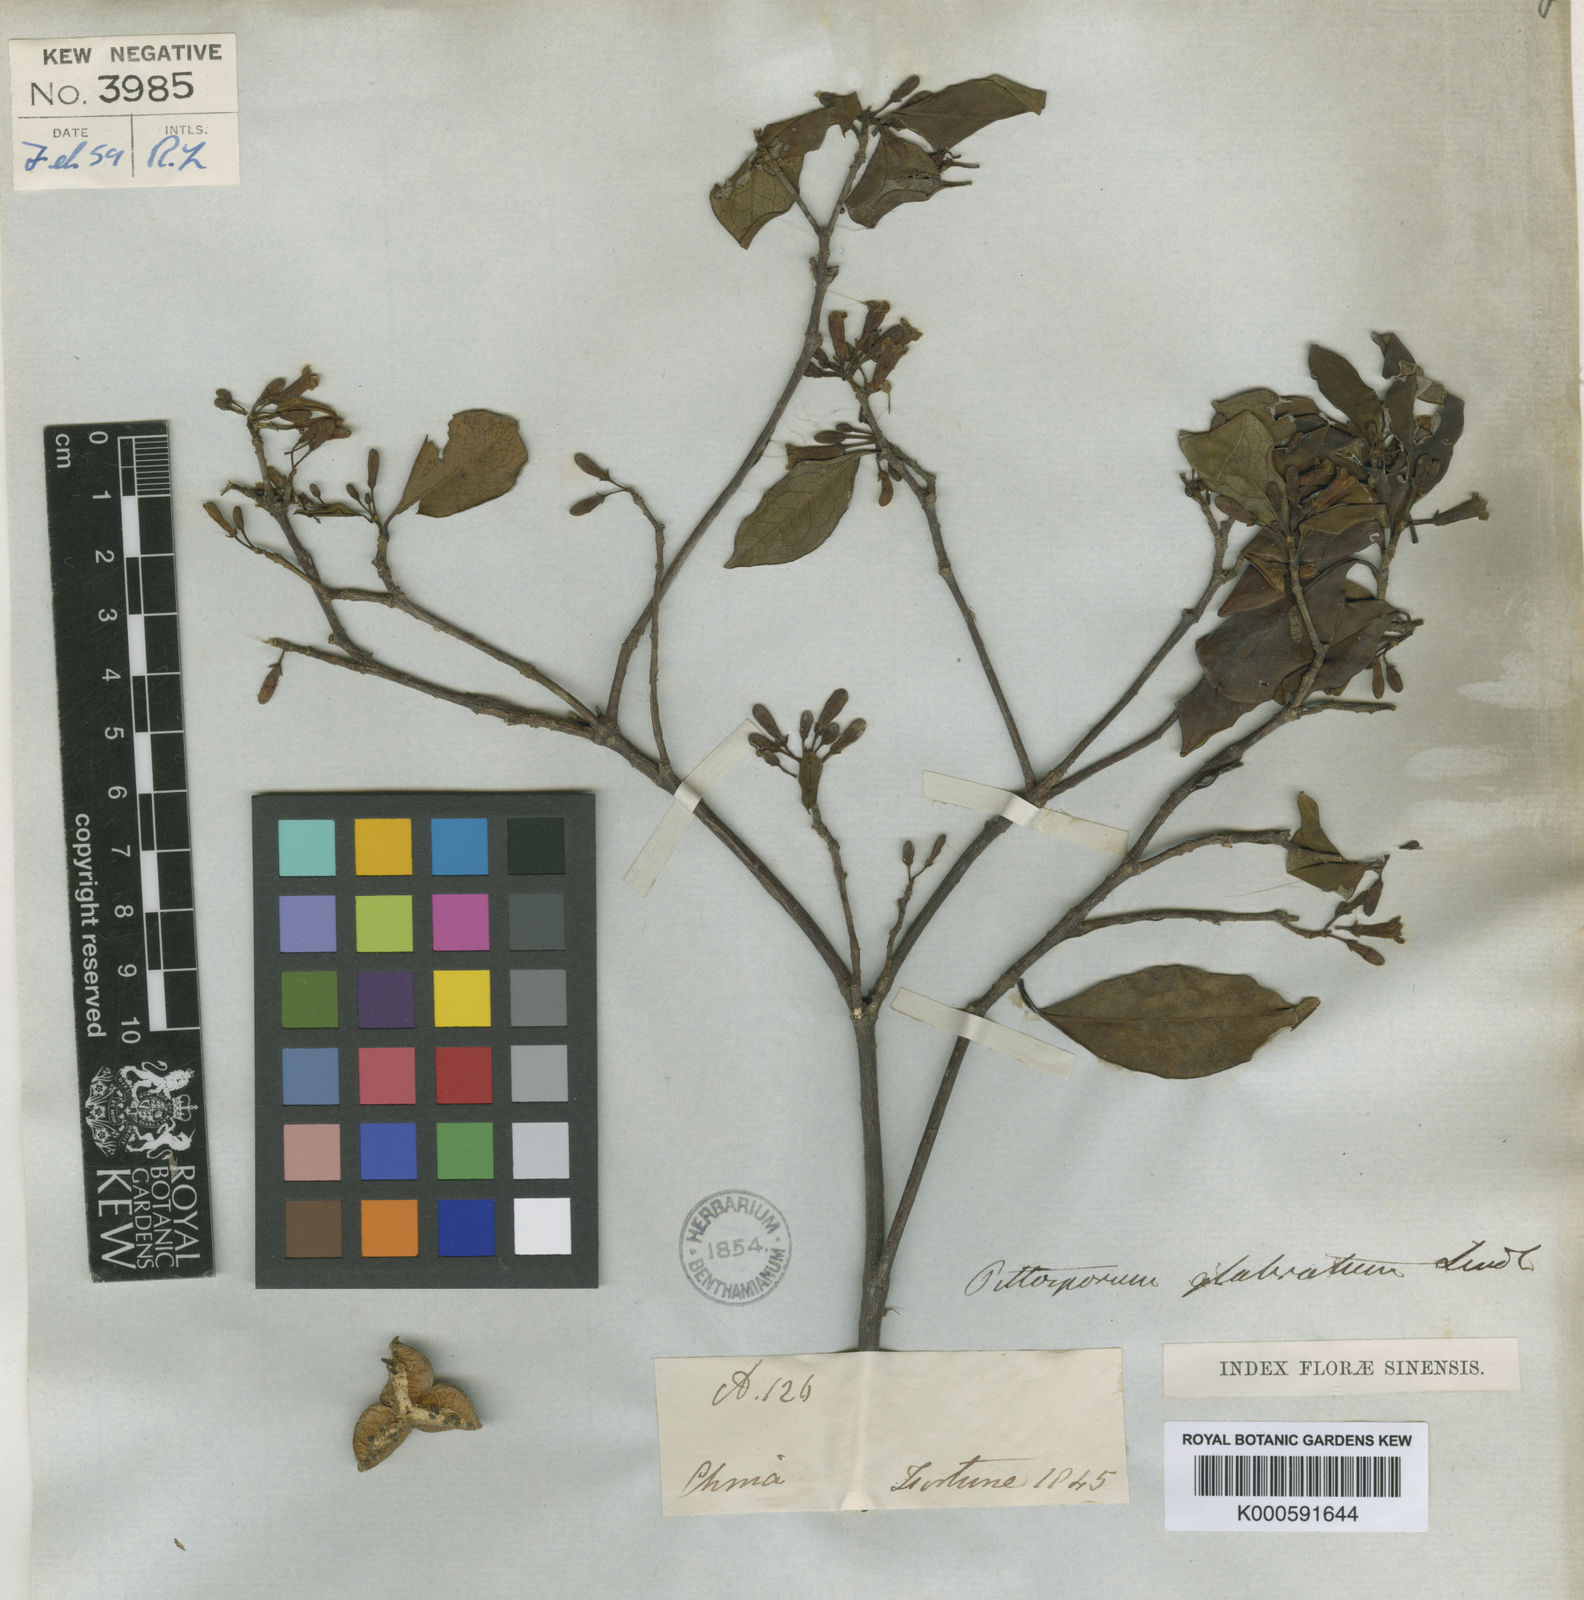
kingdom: Plantae
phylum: Tracheophyta
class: Magnoliopsida
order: Apiales
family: Pittosporaceae
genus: Pittosporum
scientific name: Pittosporum glabratum
